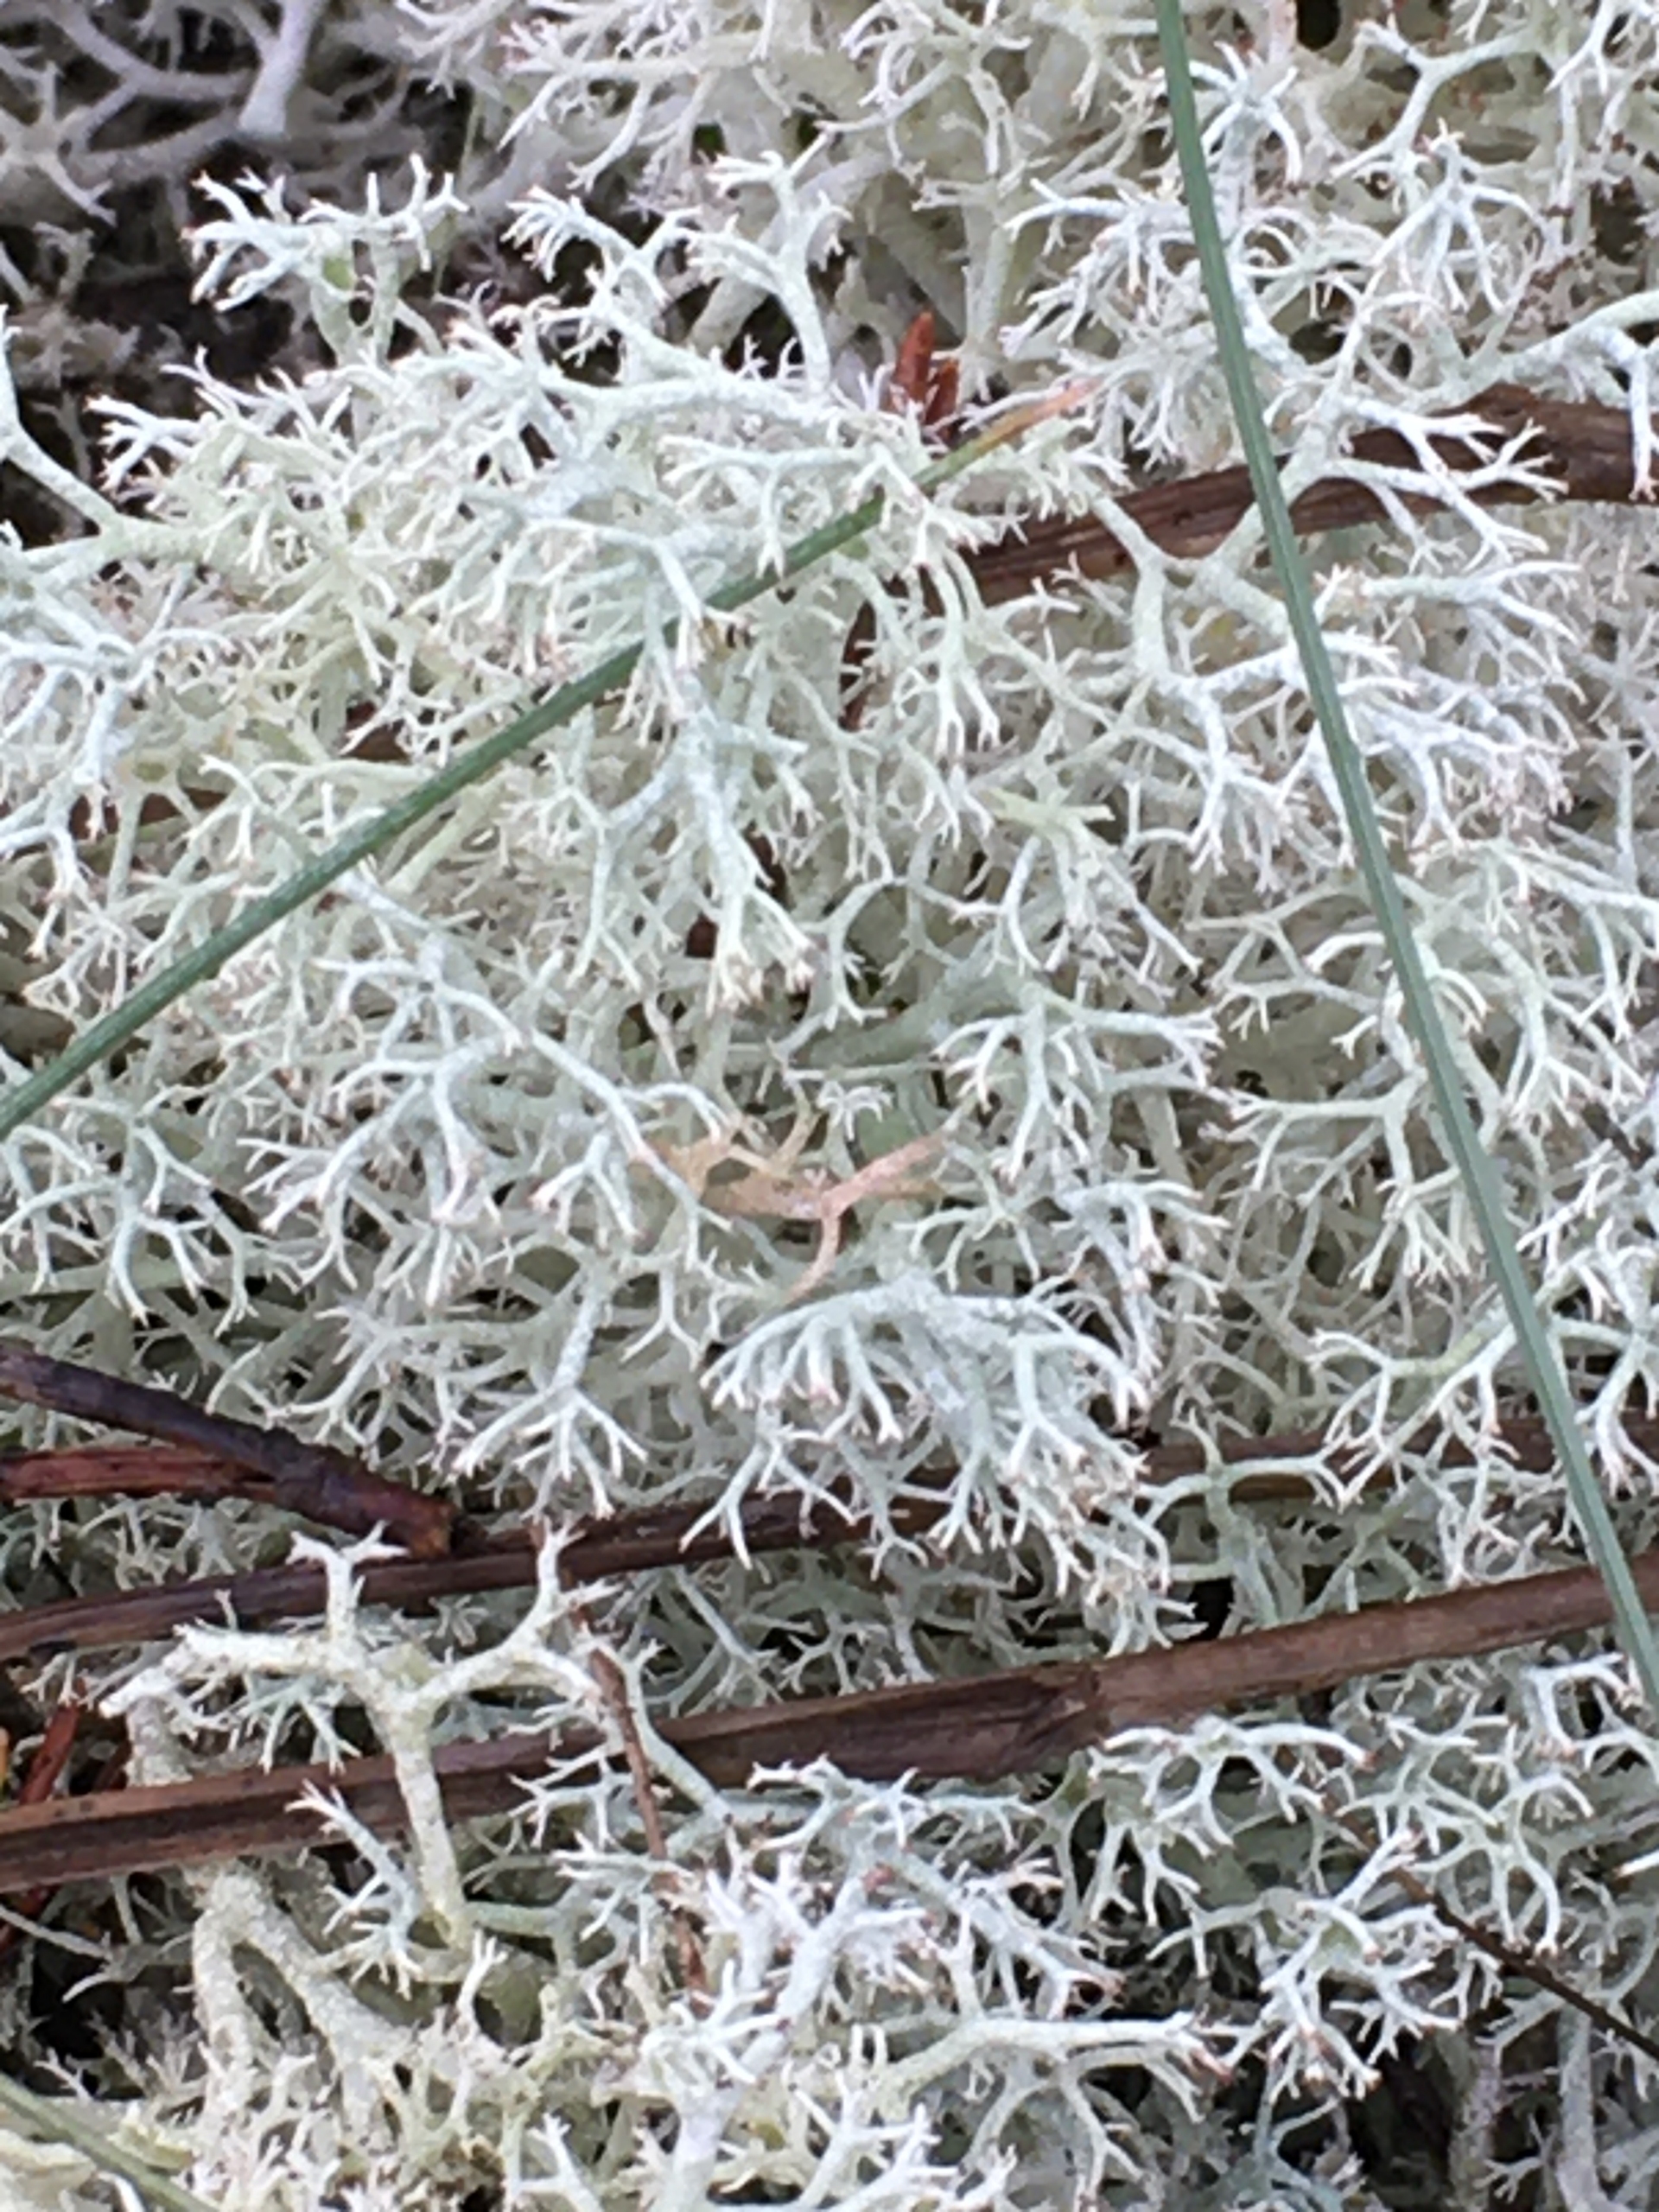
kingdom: Fungi
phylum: Ascomycota
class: Lecanoromycetes
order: Lecanorales
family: Cladoniaceae
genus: Cladonia
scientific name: Cladonia portentosa
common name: Hede-rensdyrlav
